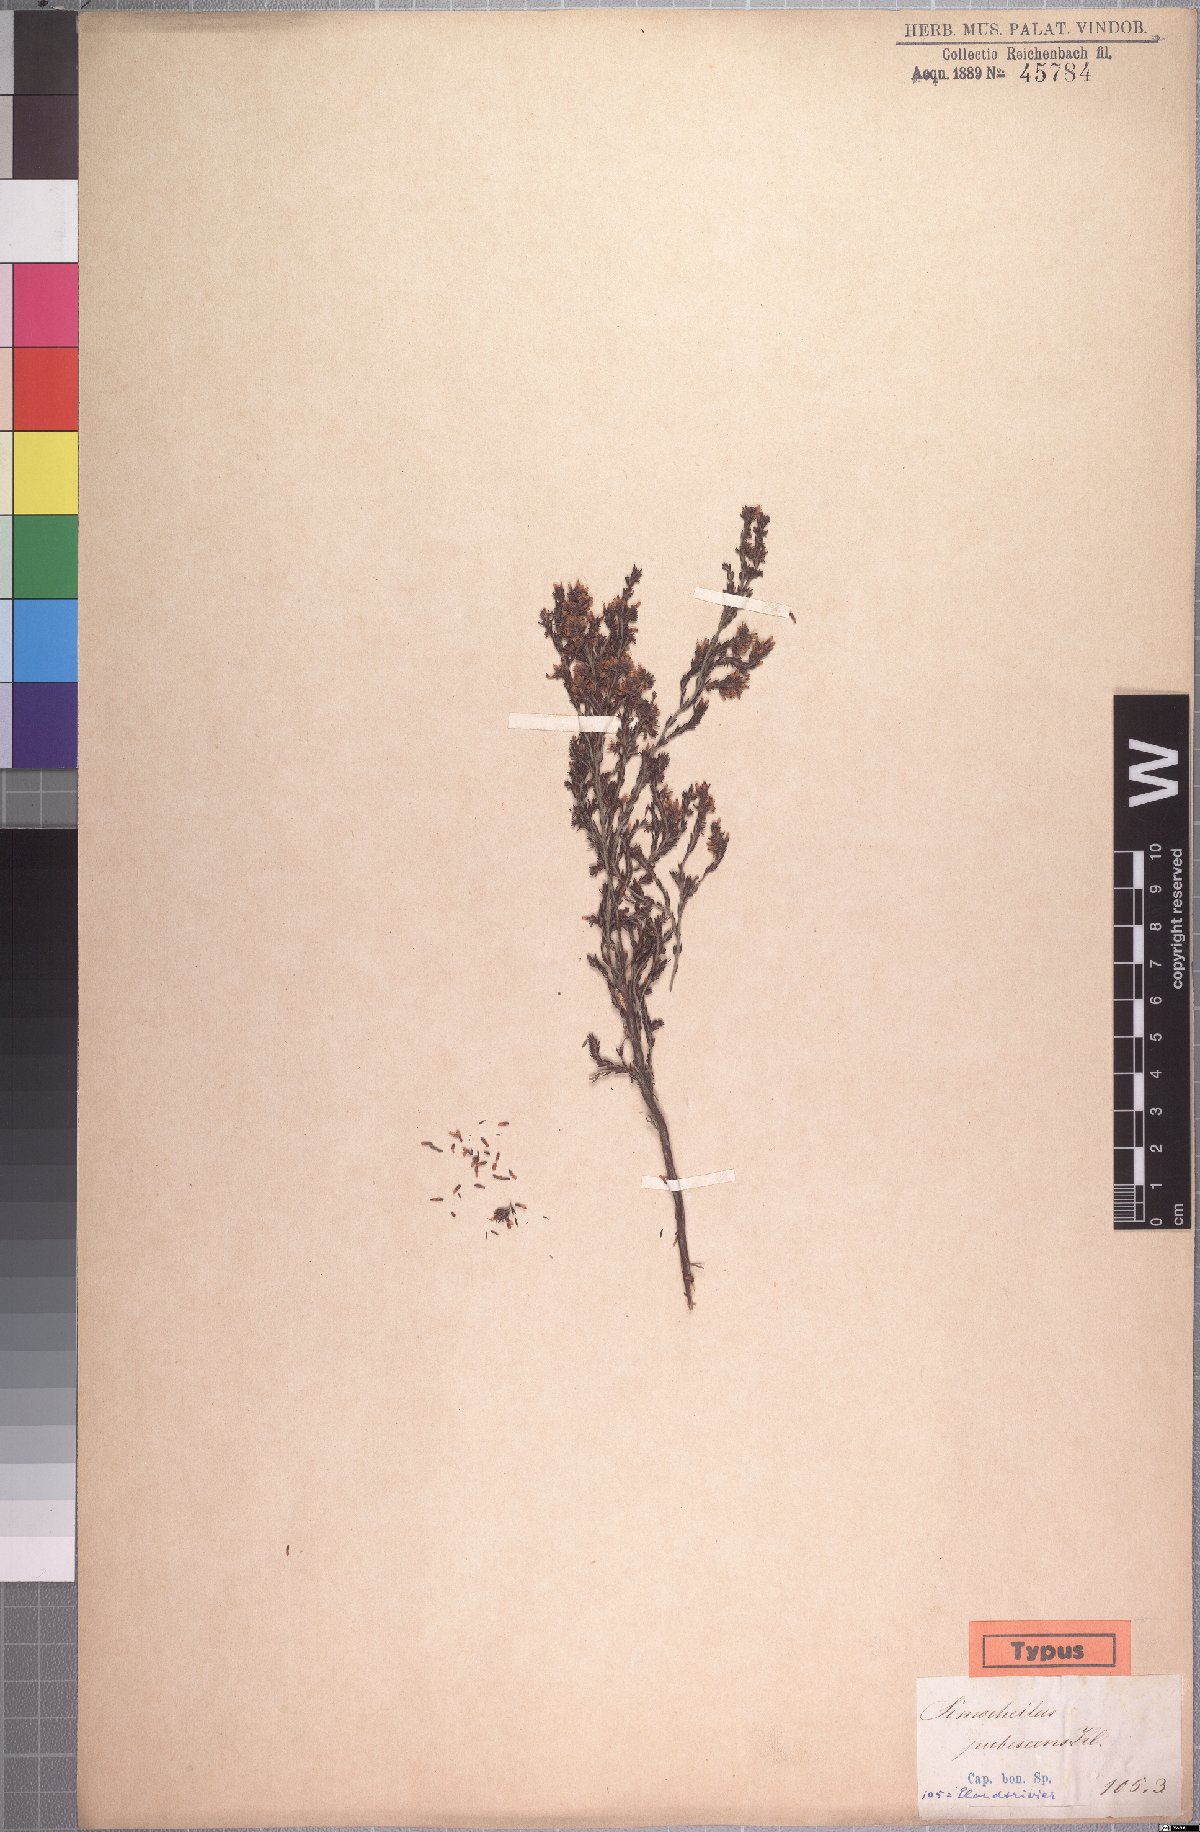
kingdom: Plantae
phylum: Tracheophyta
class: Magnoliopsida
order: Ericales
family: Ericaceae
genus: Erica
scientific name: Erica uberiflora
